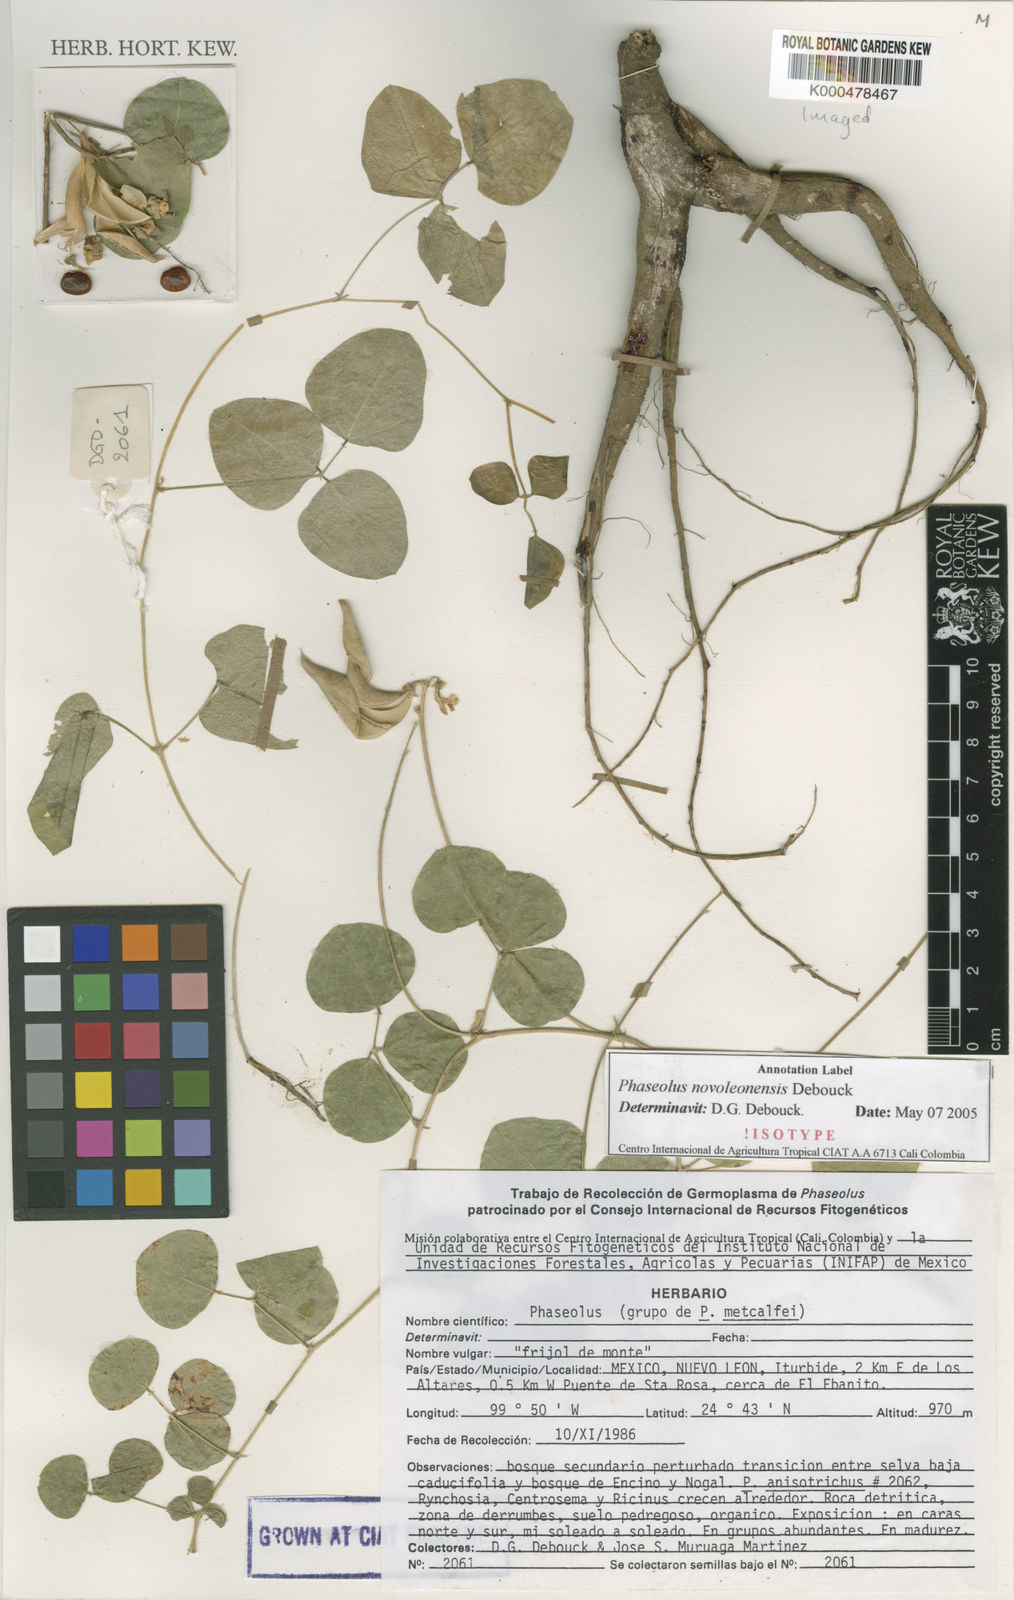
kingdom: Plantae
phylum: Tracheophyta
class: Magnoliopsida
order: Fabales
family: Fabaceae
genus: Phaseolus
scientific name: Phaseolus novoleonensis
